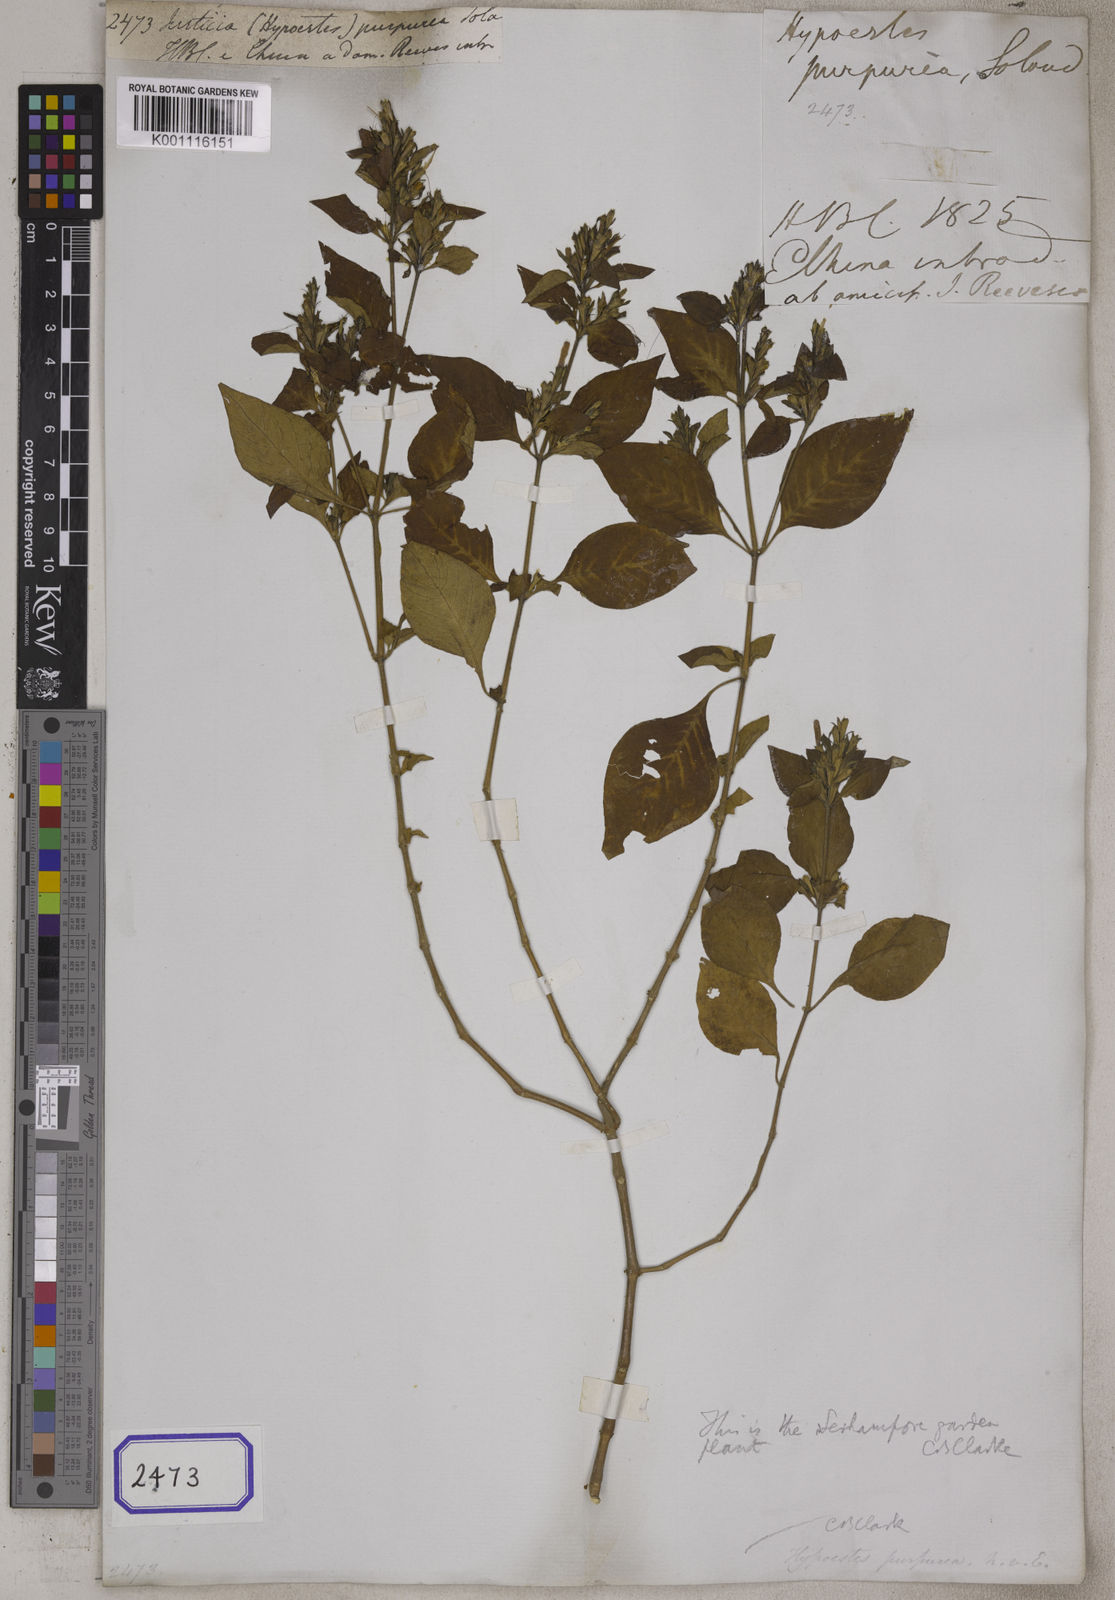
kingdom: Plantae
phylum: Tracheophyta
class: Magnoliopsida
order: Lamiales
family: Acanthaceae
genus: Hypoestes
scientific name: Hypoestes purpurea
